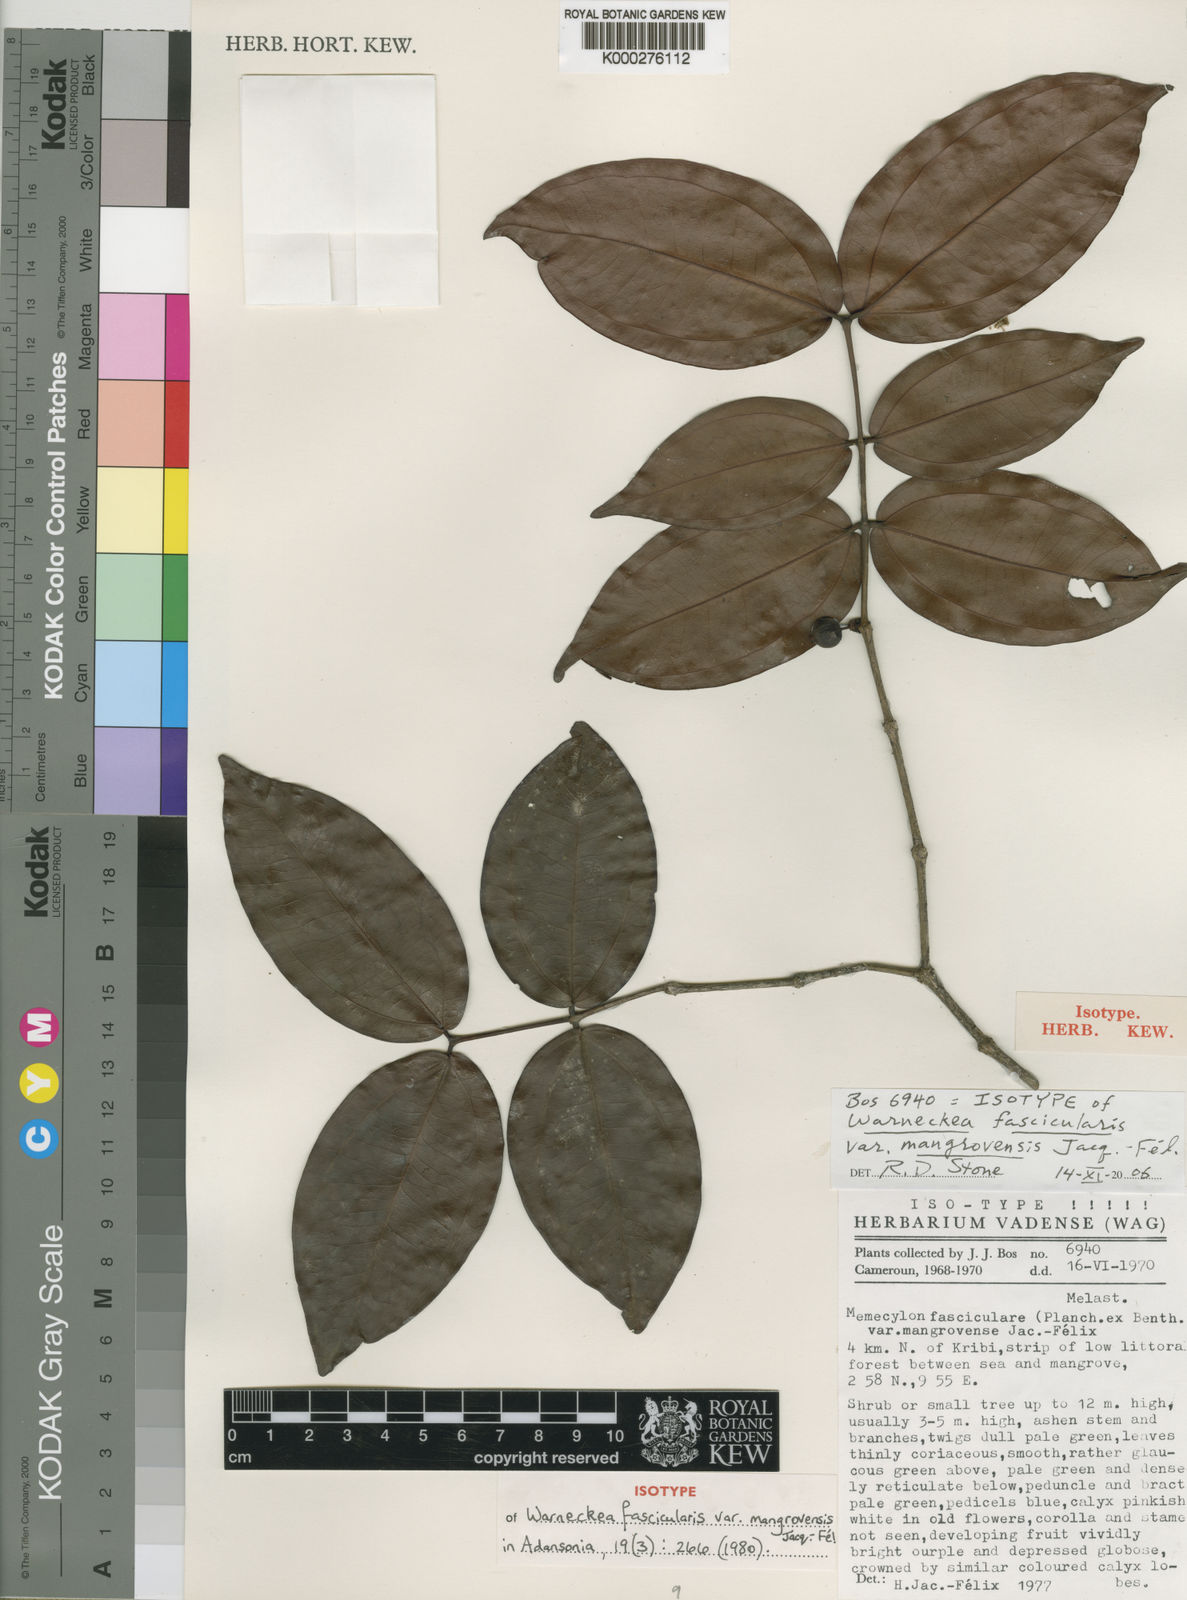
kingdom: Plantae
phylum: Tracheophyta
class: Magnoliopsida
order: Myrtales
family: Melastomataceae
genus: Warneckea
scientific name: Warneckea
